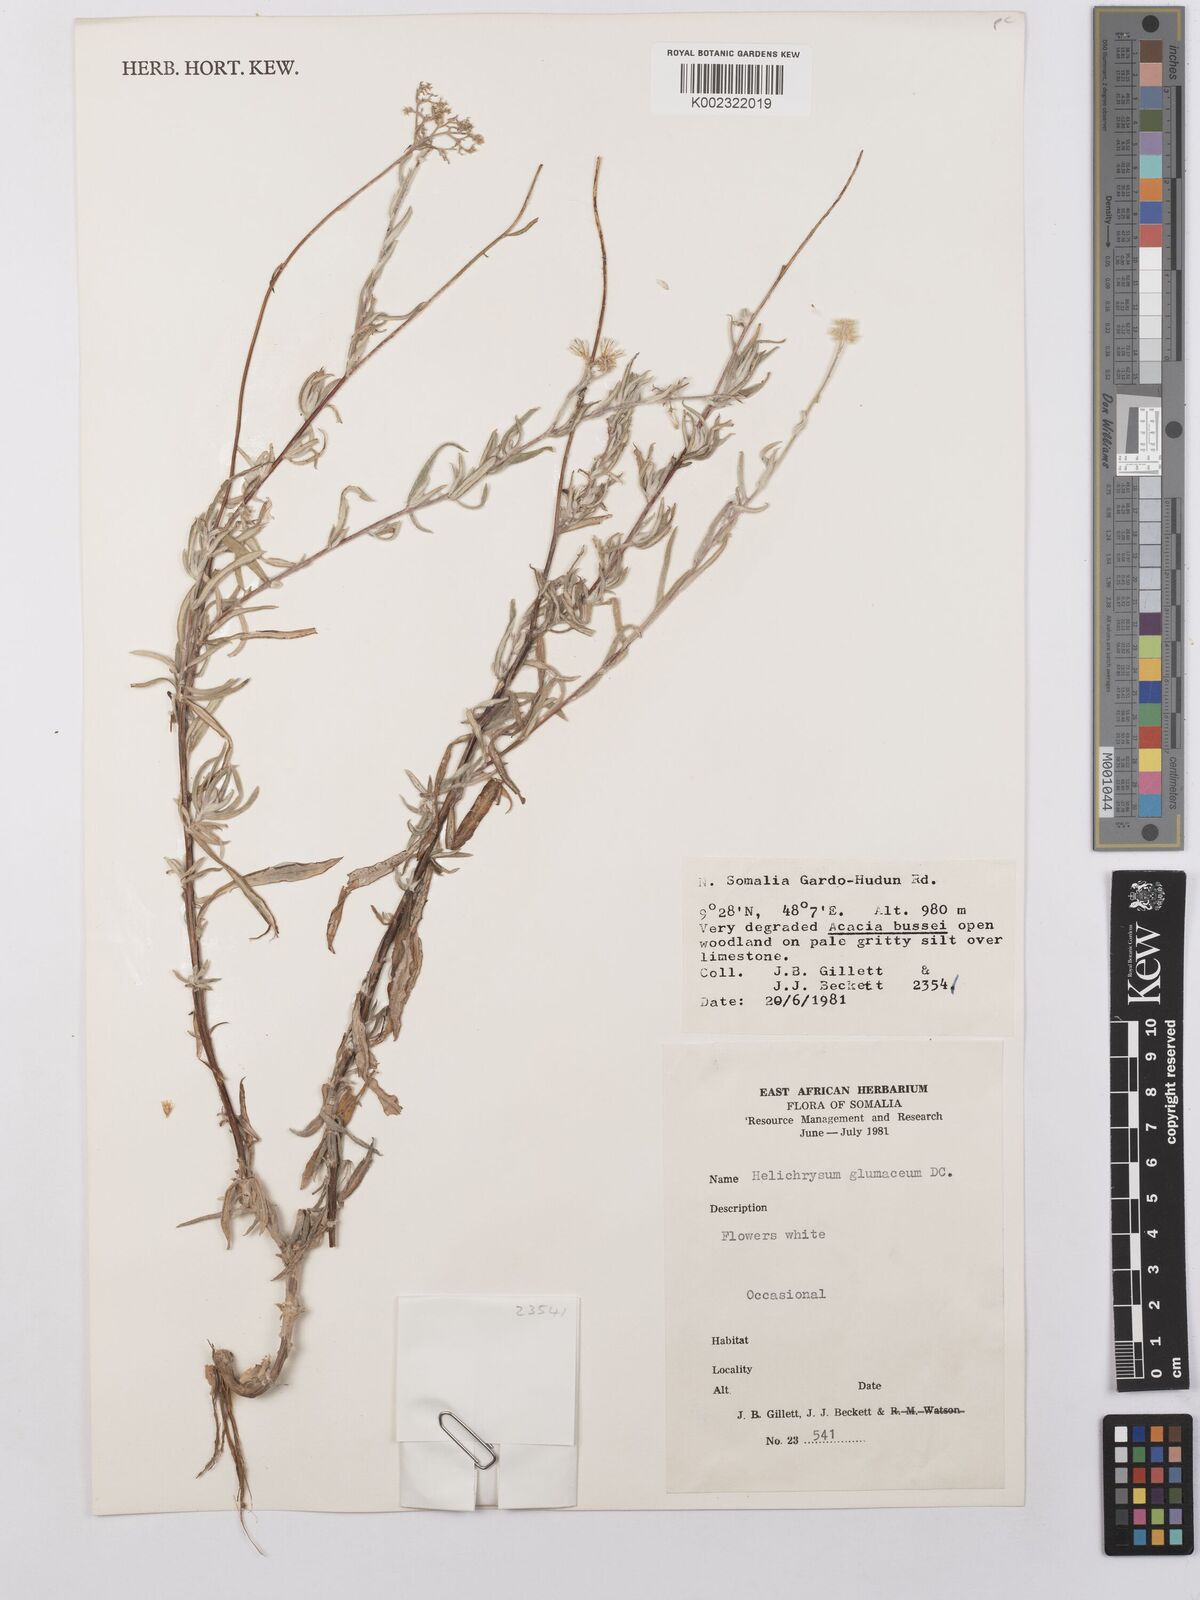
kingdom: Plantae
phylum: Tracheophyta
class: Magnoliopsida
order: Asterales
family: Asteraceae
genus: Helichrysum
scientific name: Helichrysum glumaceum
